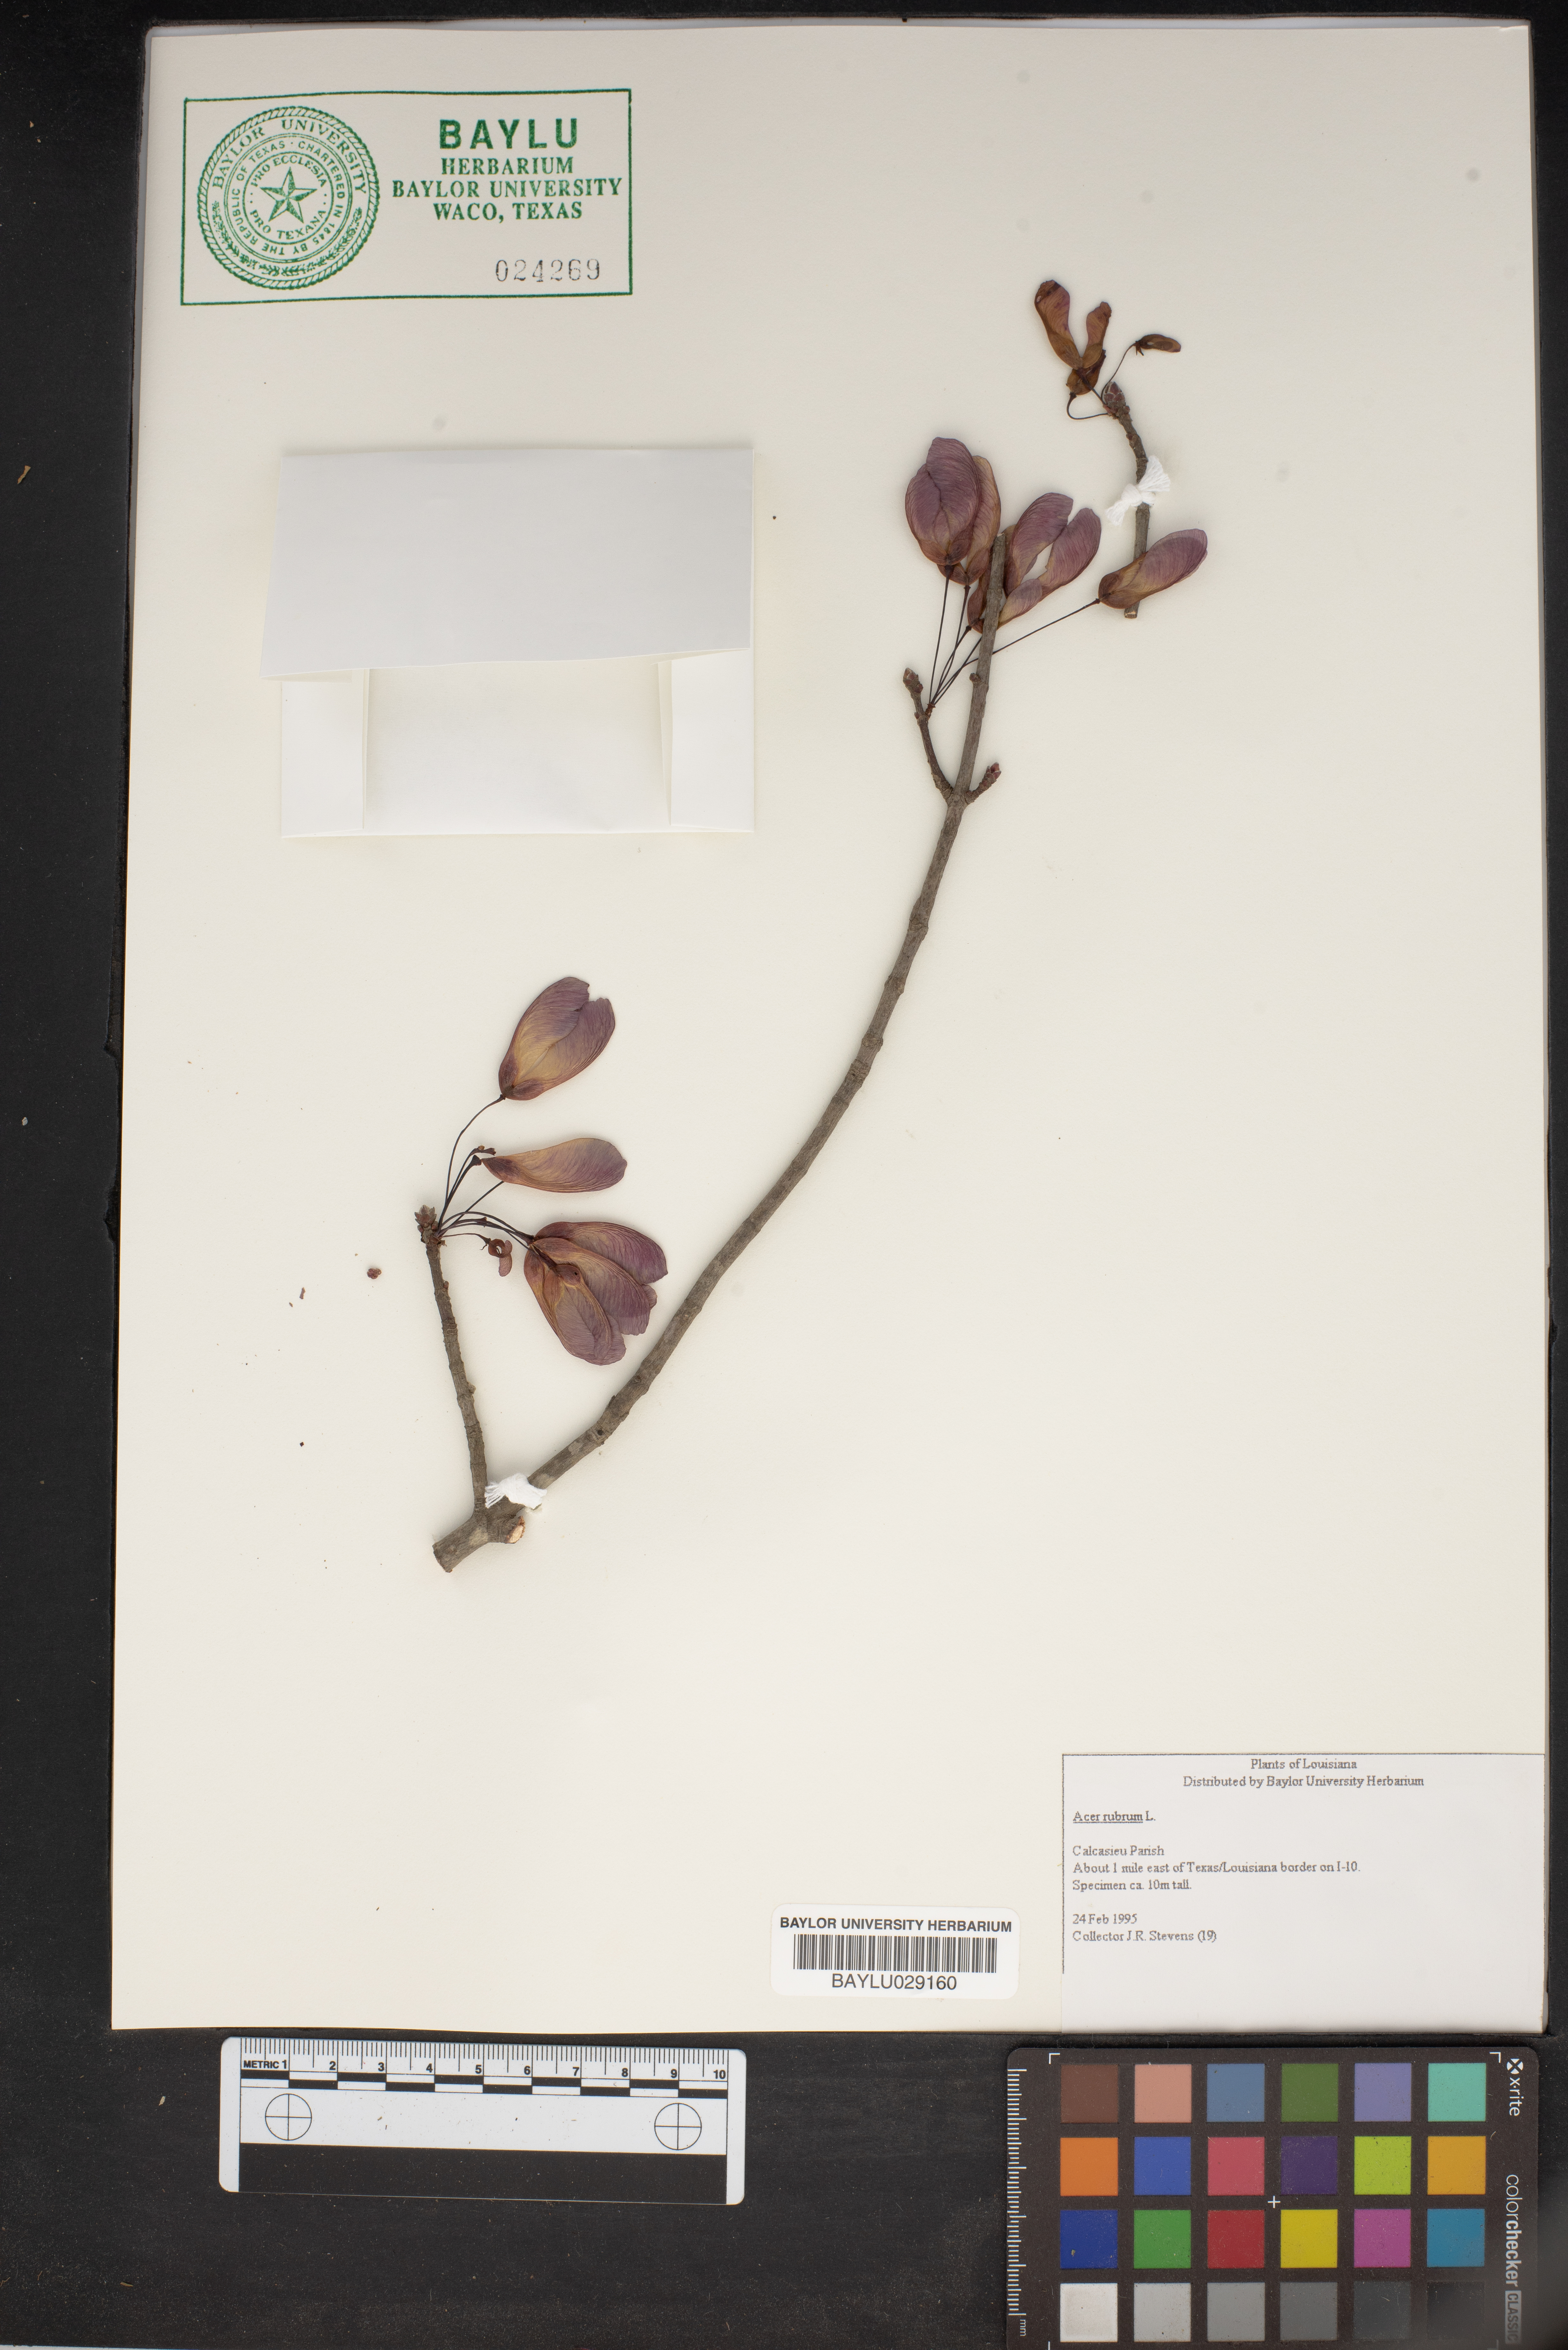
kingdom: Plantae
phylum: Tracheophyta
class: Magnoliopsida
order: Sapindales
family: Sapindaceae
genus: Acer
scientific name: Acer rubrum
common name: Red maple
